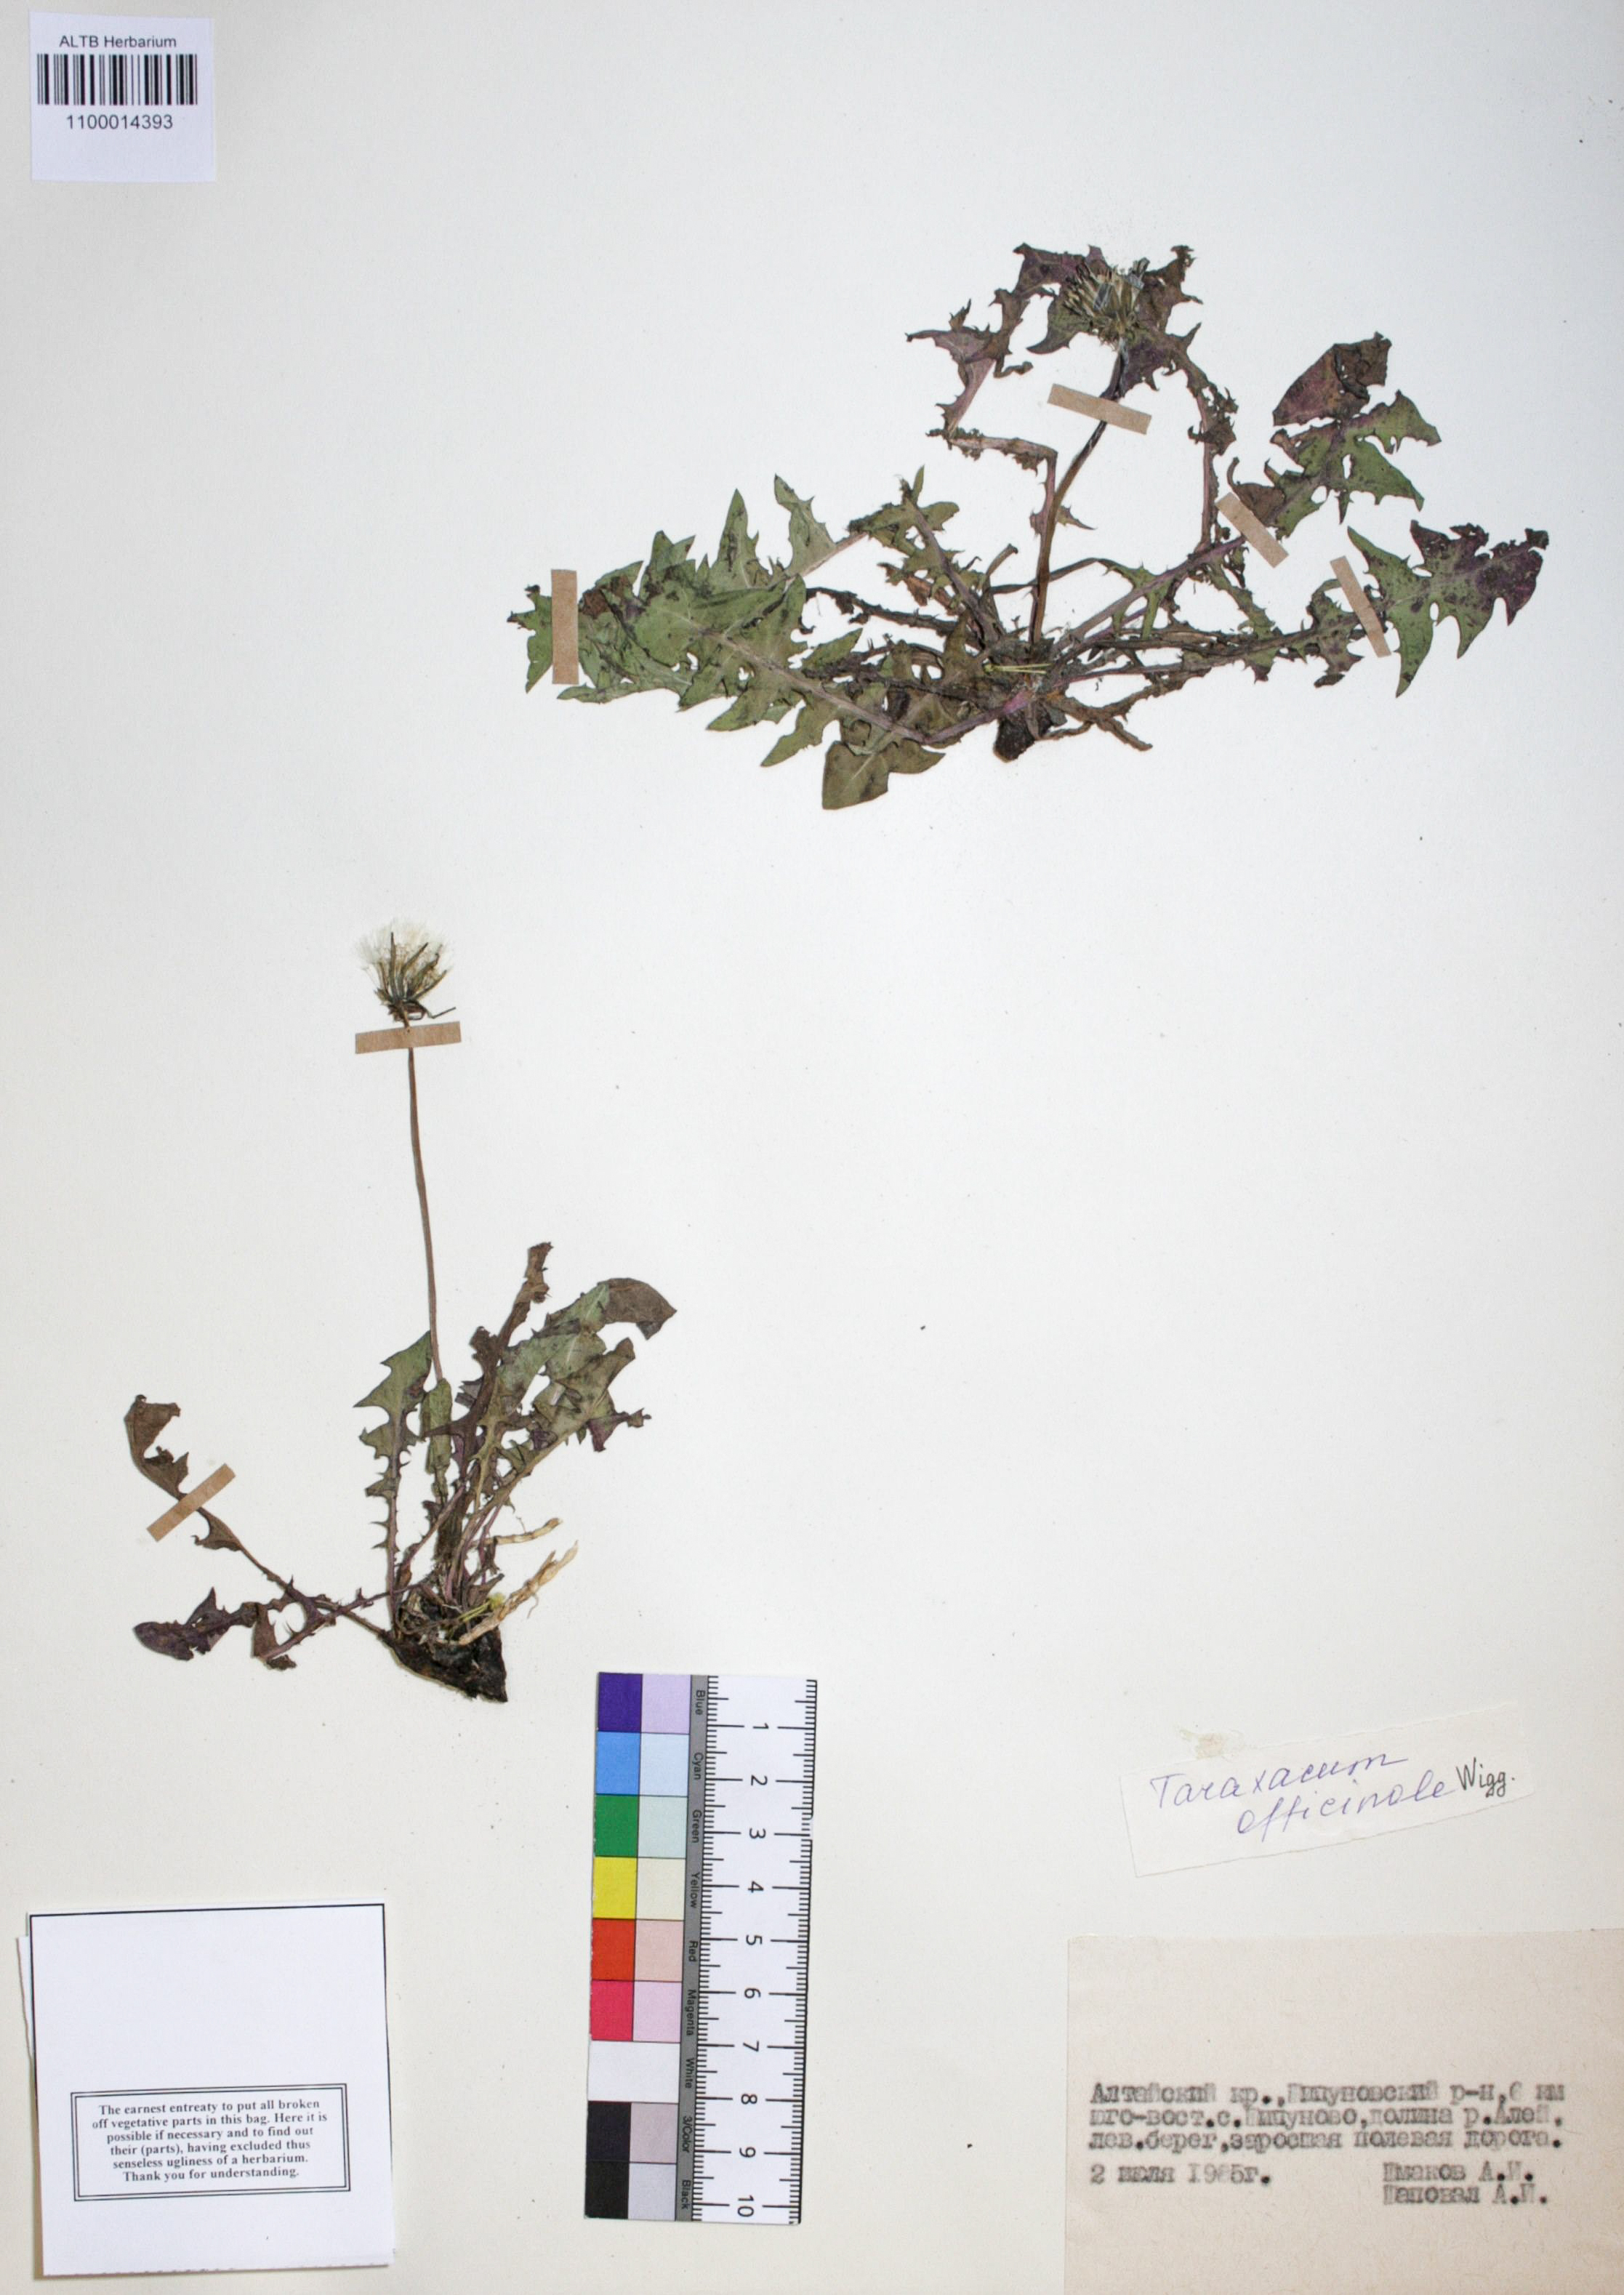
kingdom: Plantae
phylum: Tracheophyta
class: Magnoliopsida
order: Asterales
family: Asteraceae
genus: Taraxacum
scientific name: Taraxacum officinale
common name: Common dandelion
